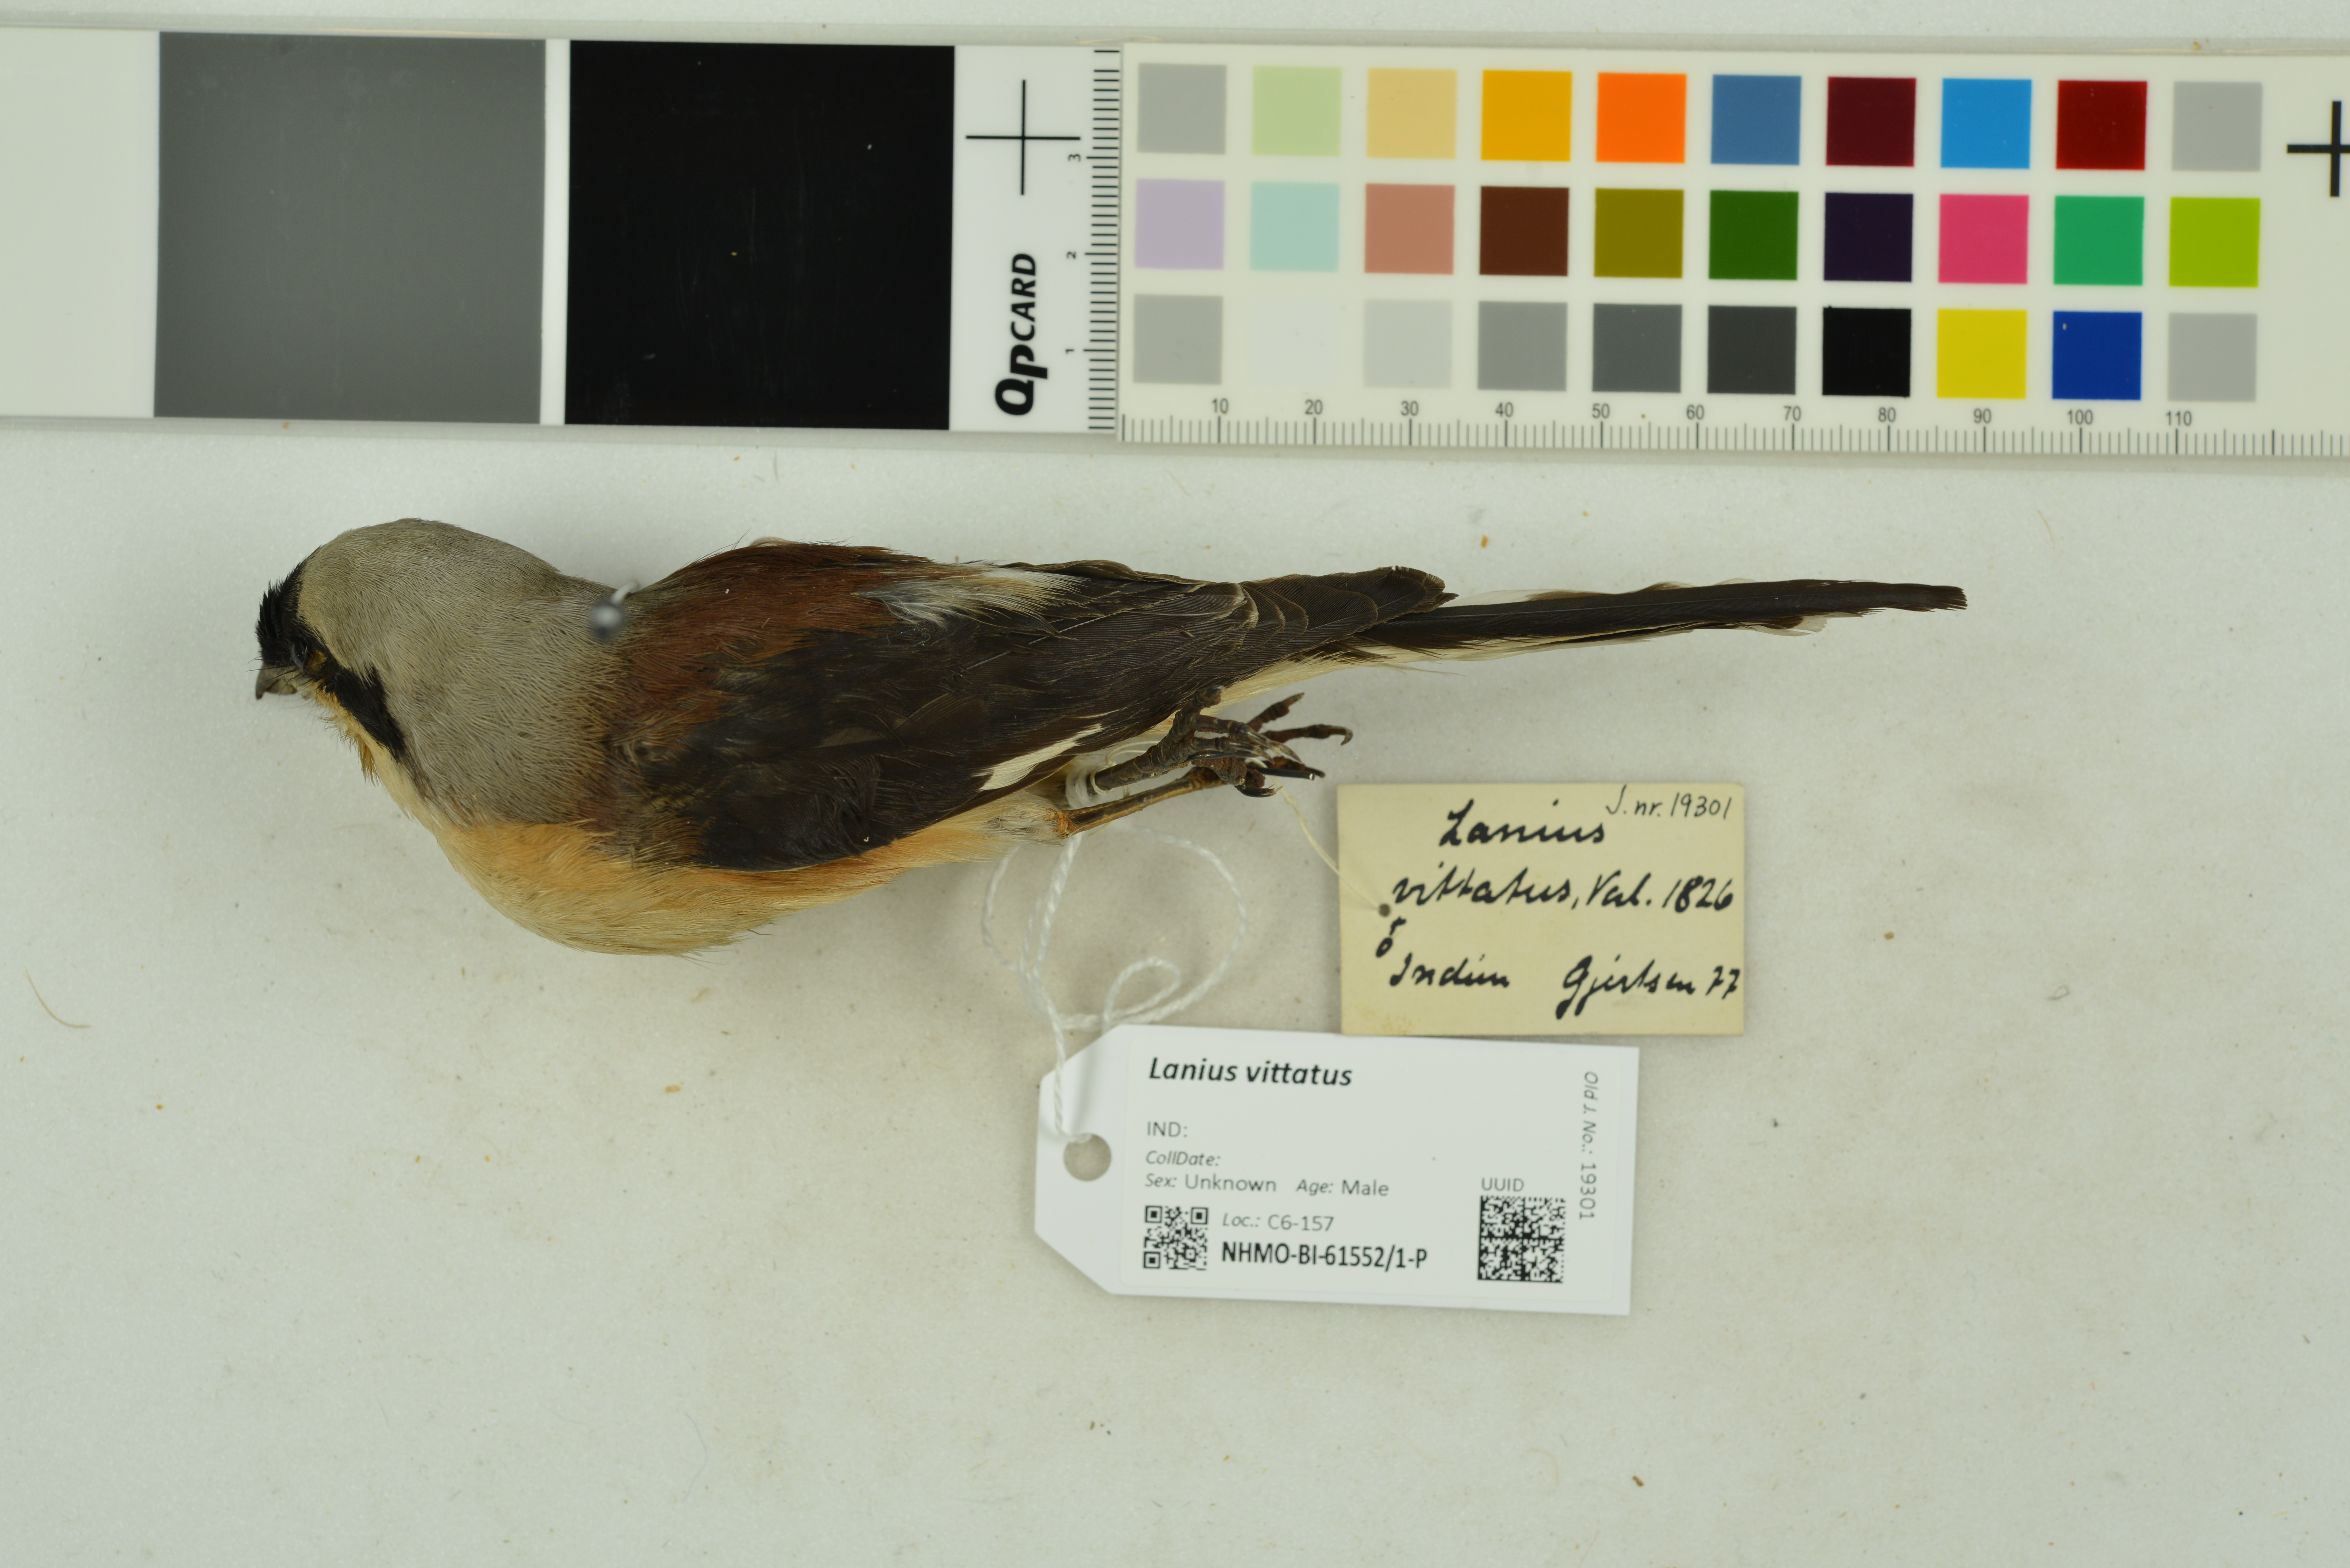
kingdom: Animalia
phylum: Chordata
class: Aves
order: Passeriformes
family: Laniidae
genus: Lanius
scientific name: Lanius vittatus
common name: Bay-backed shrike
